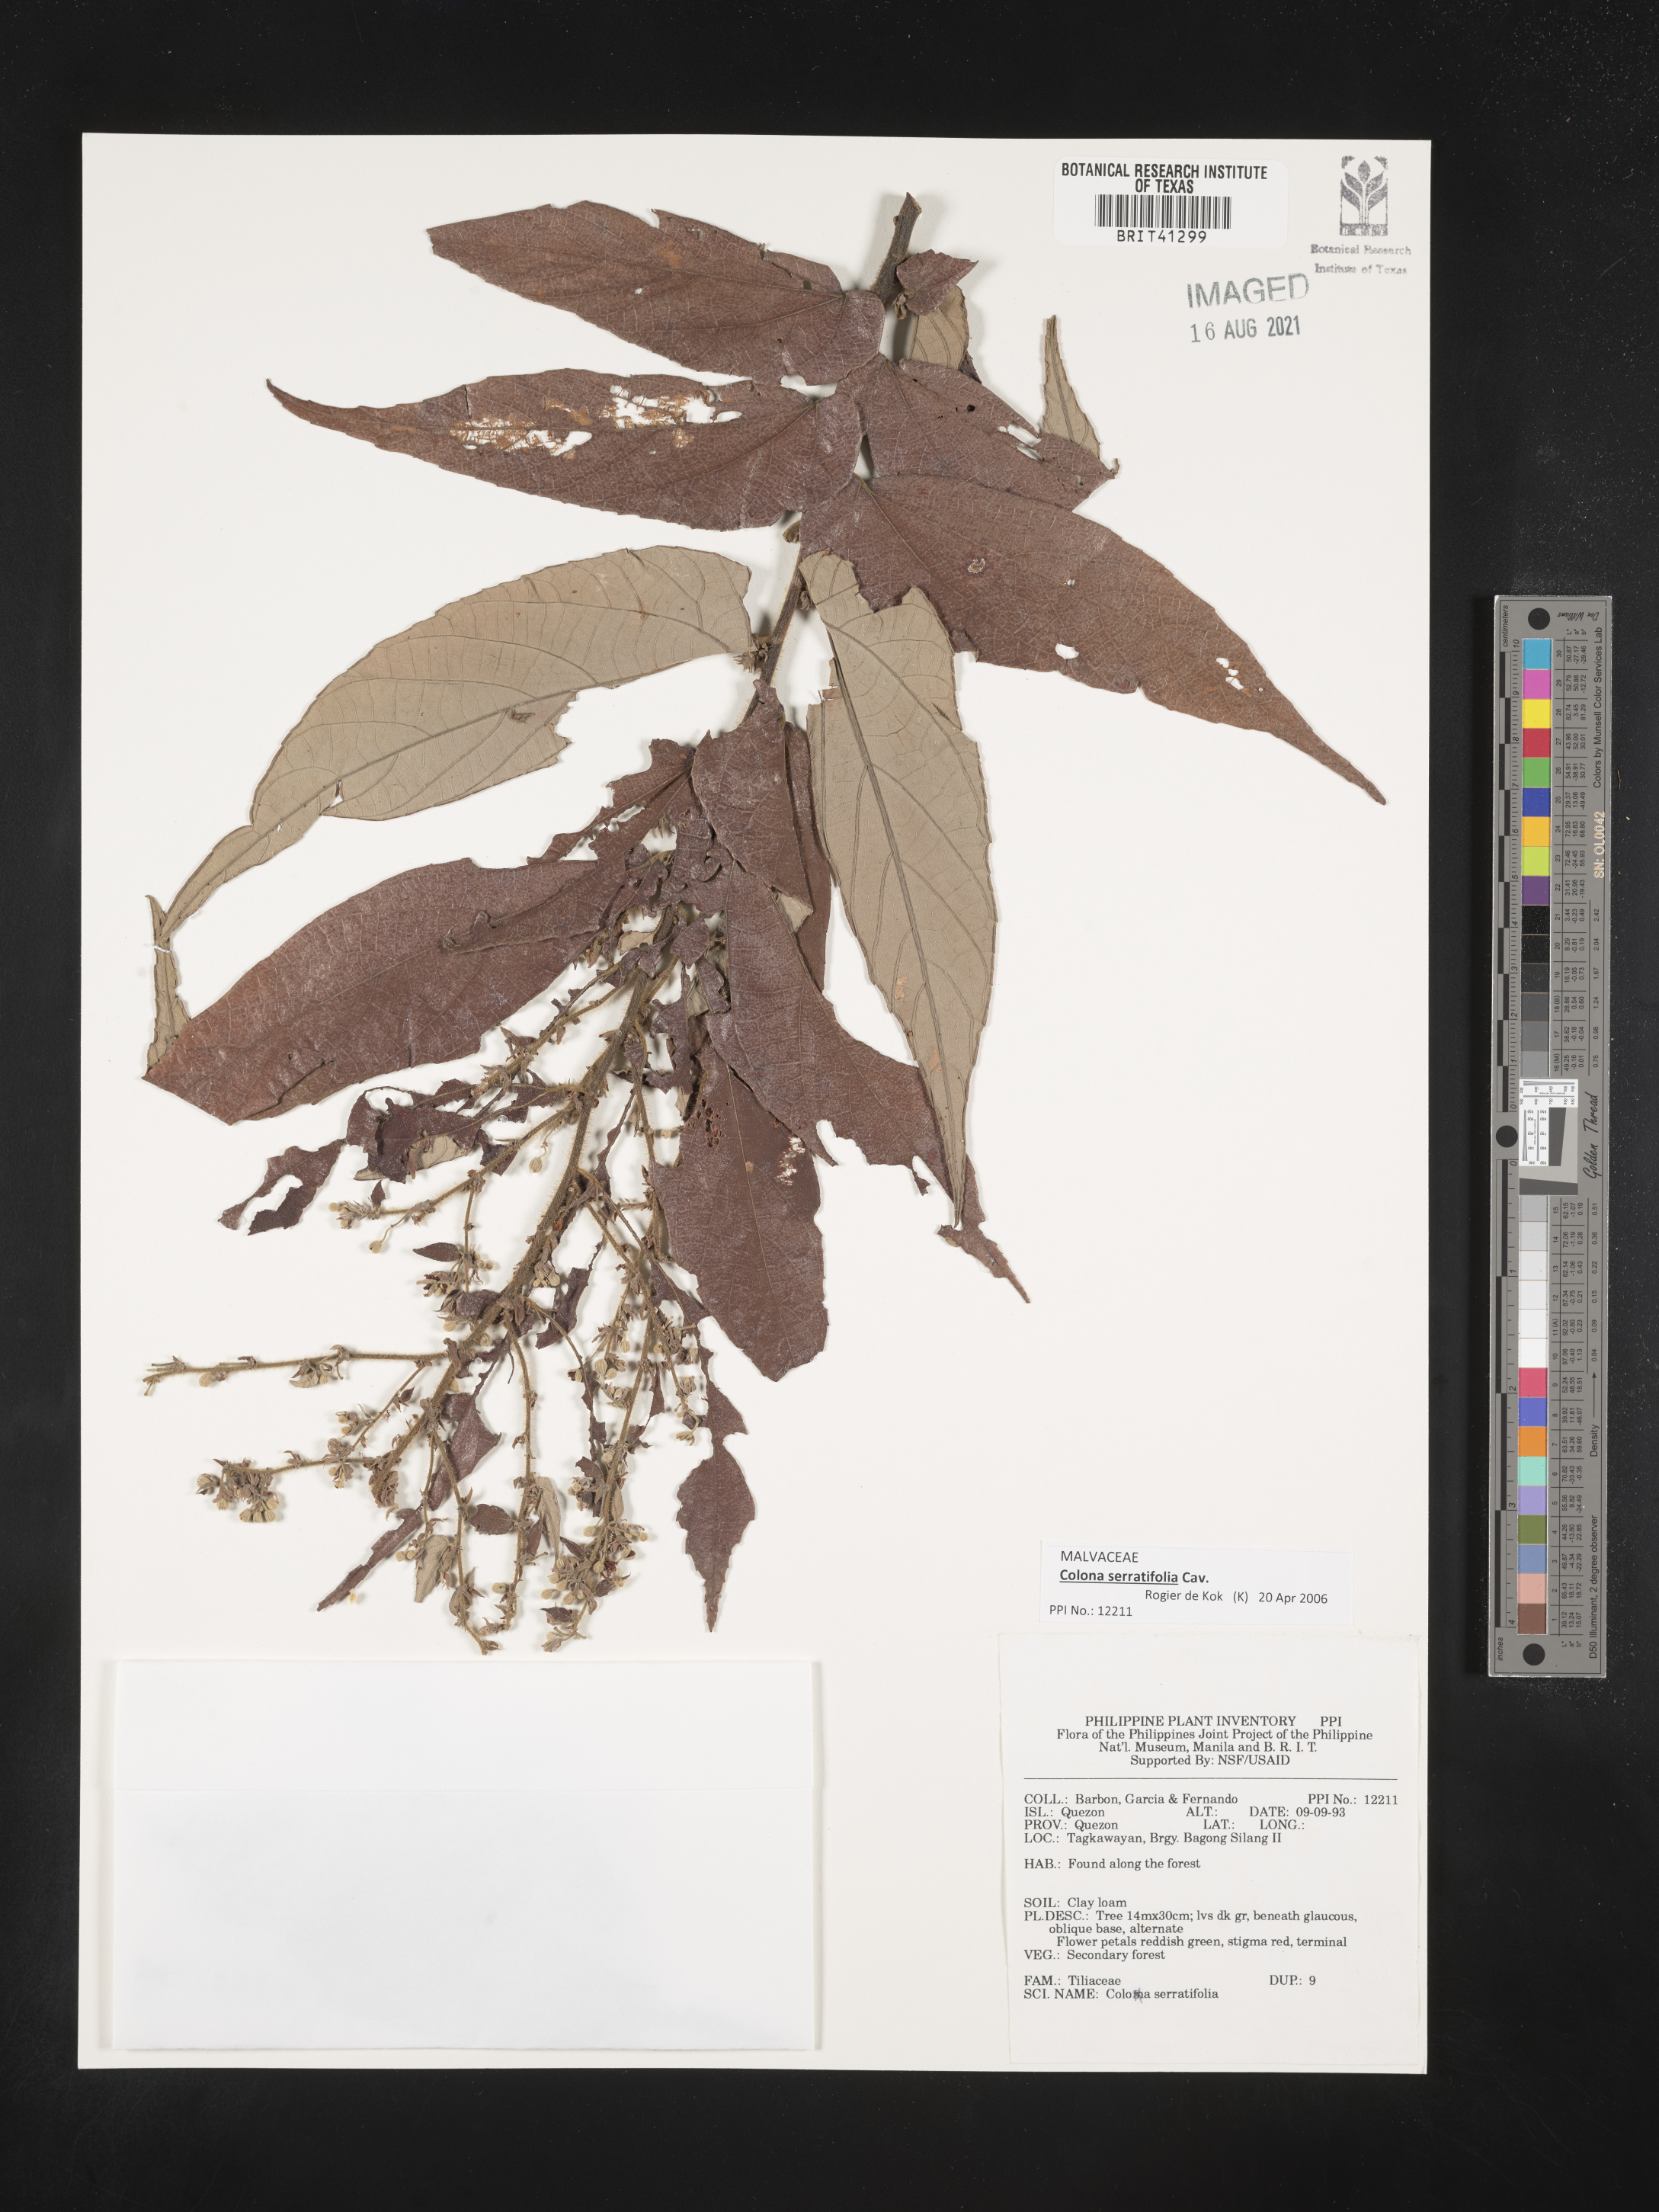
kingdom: Plantae
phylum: Tracheophyta
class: Magnoliopsida
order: Malvales
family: Malvaceae
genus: Colona
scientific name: Colona serratifolia
